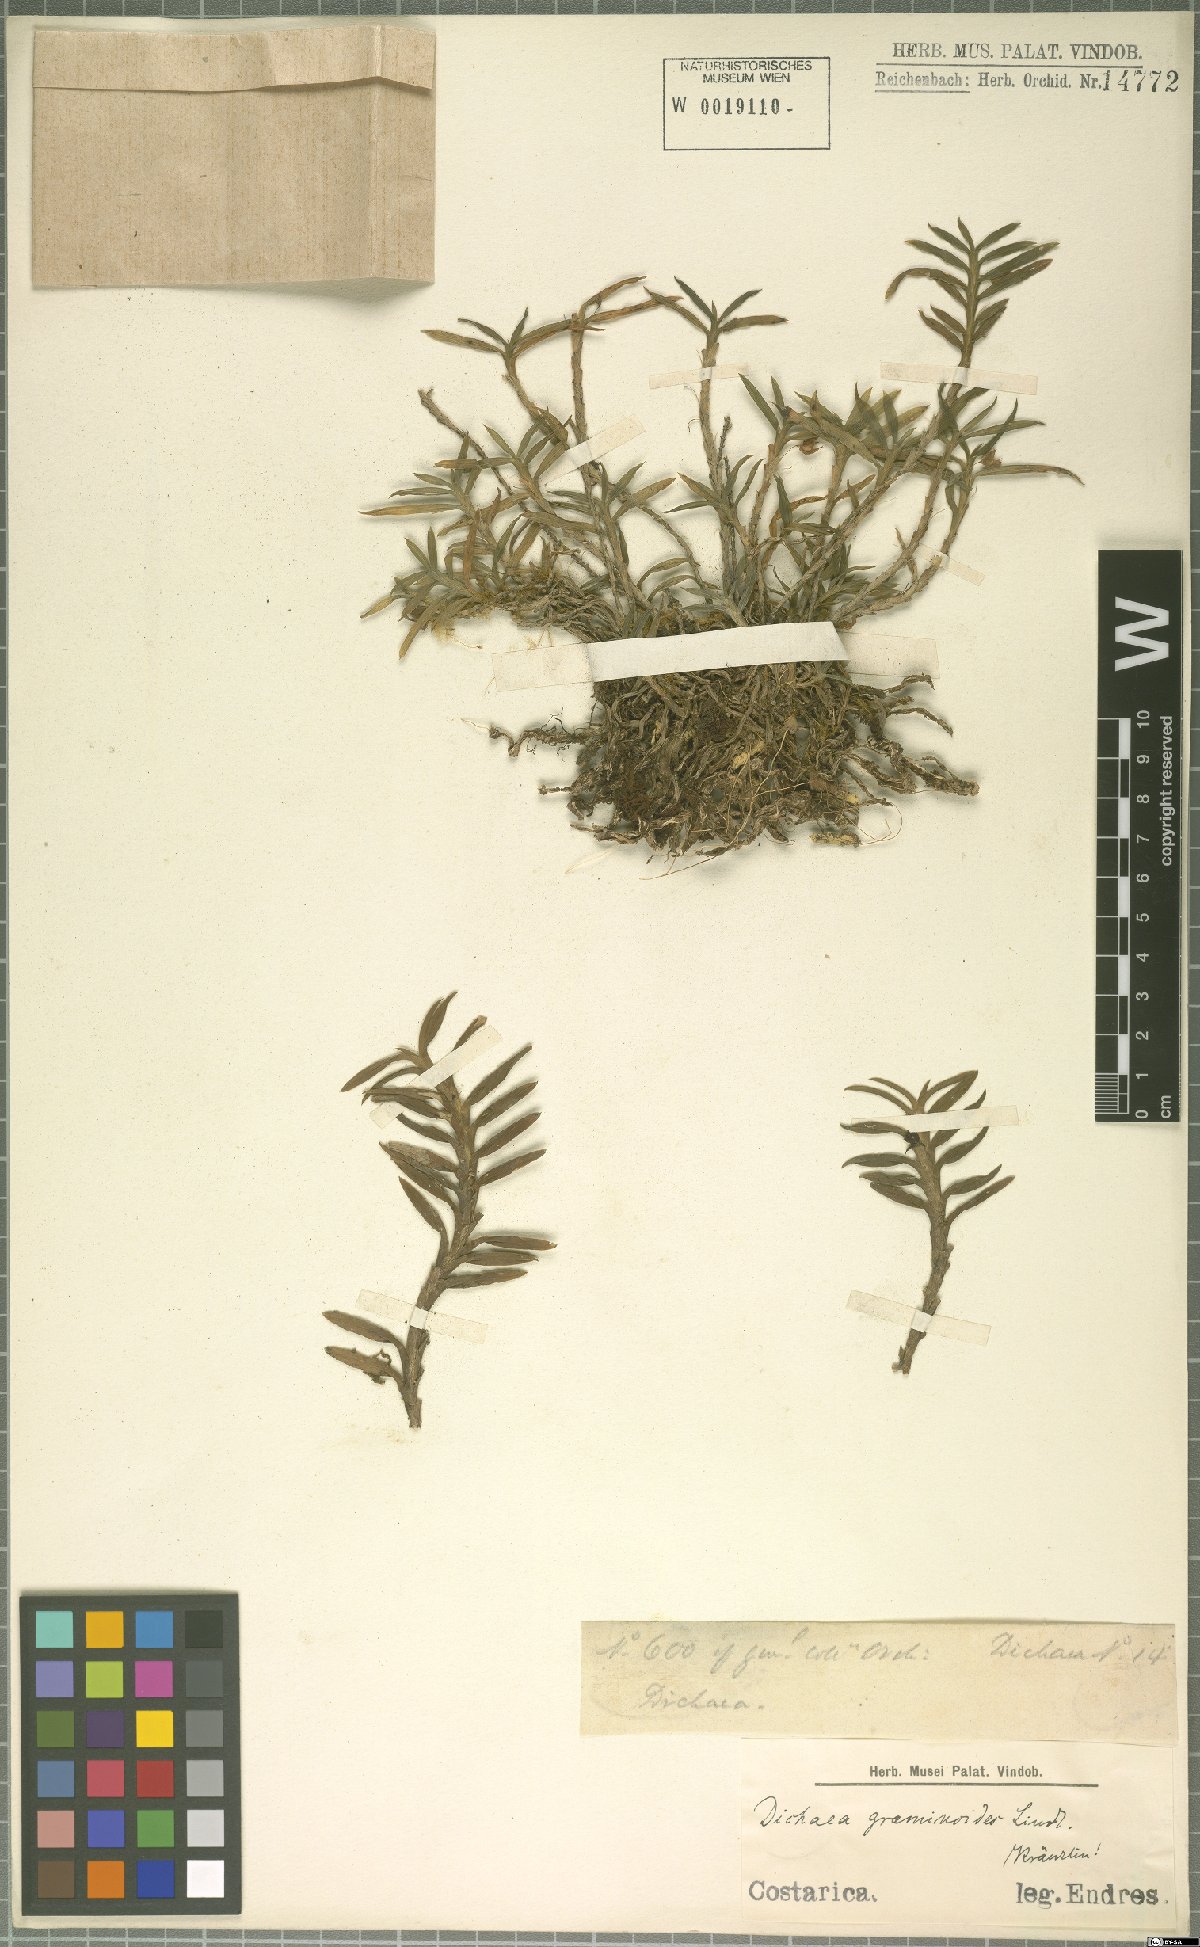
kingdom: Plantae
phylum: Tracheophyta
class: Liliopsida
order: Asparagales
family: Orchidaceae
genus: Dichaea
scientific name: Dichaea graminoides
